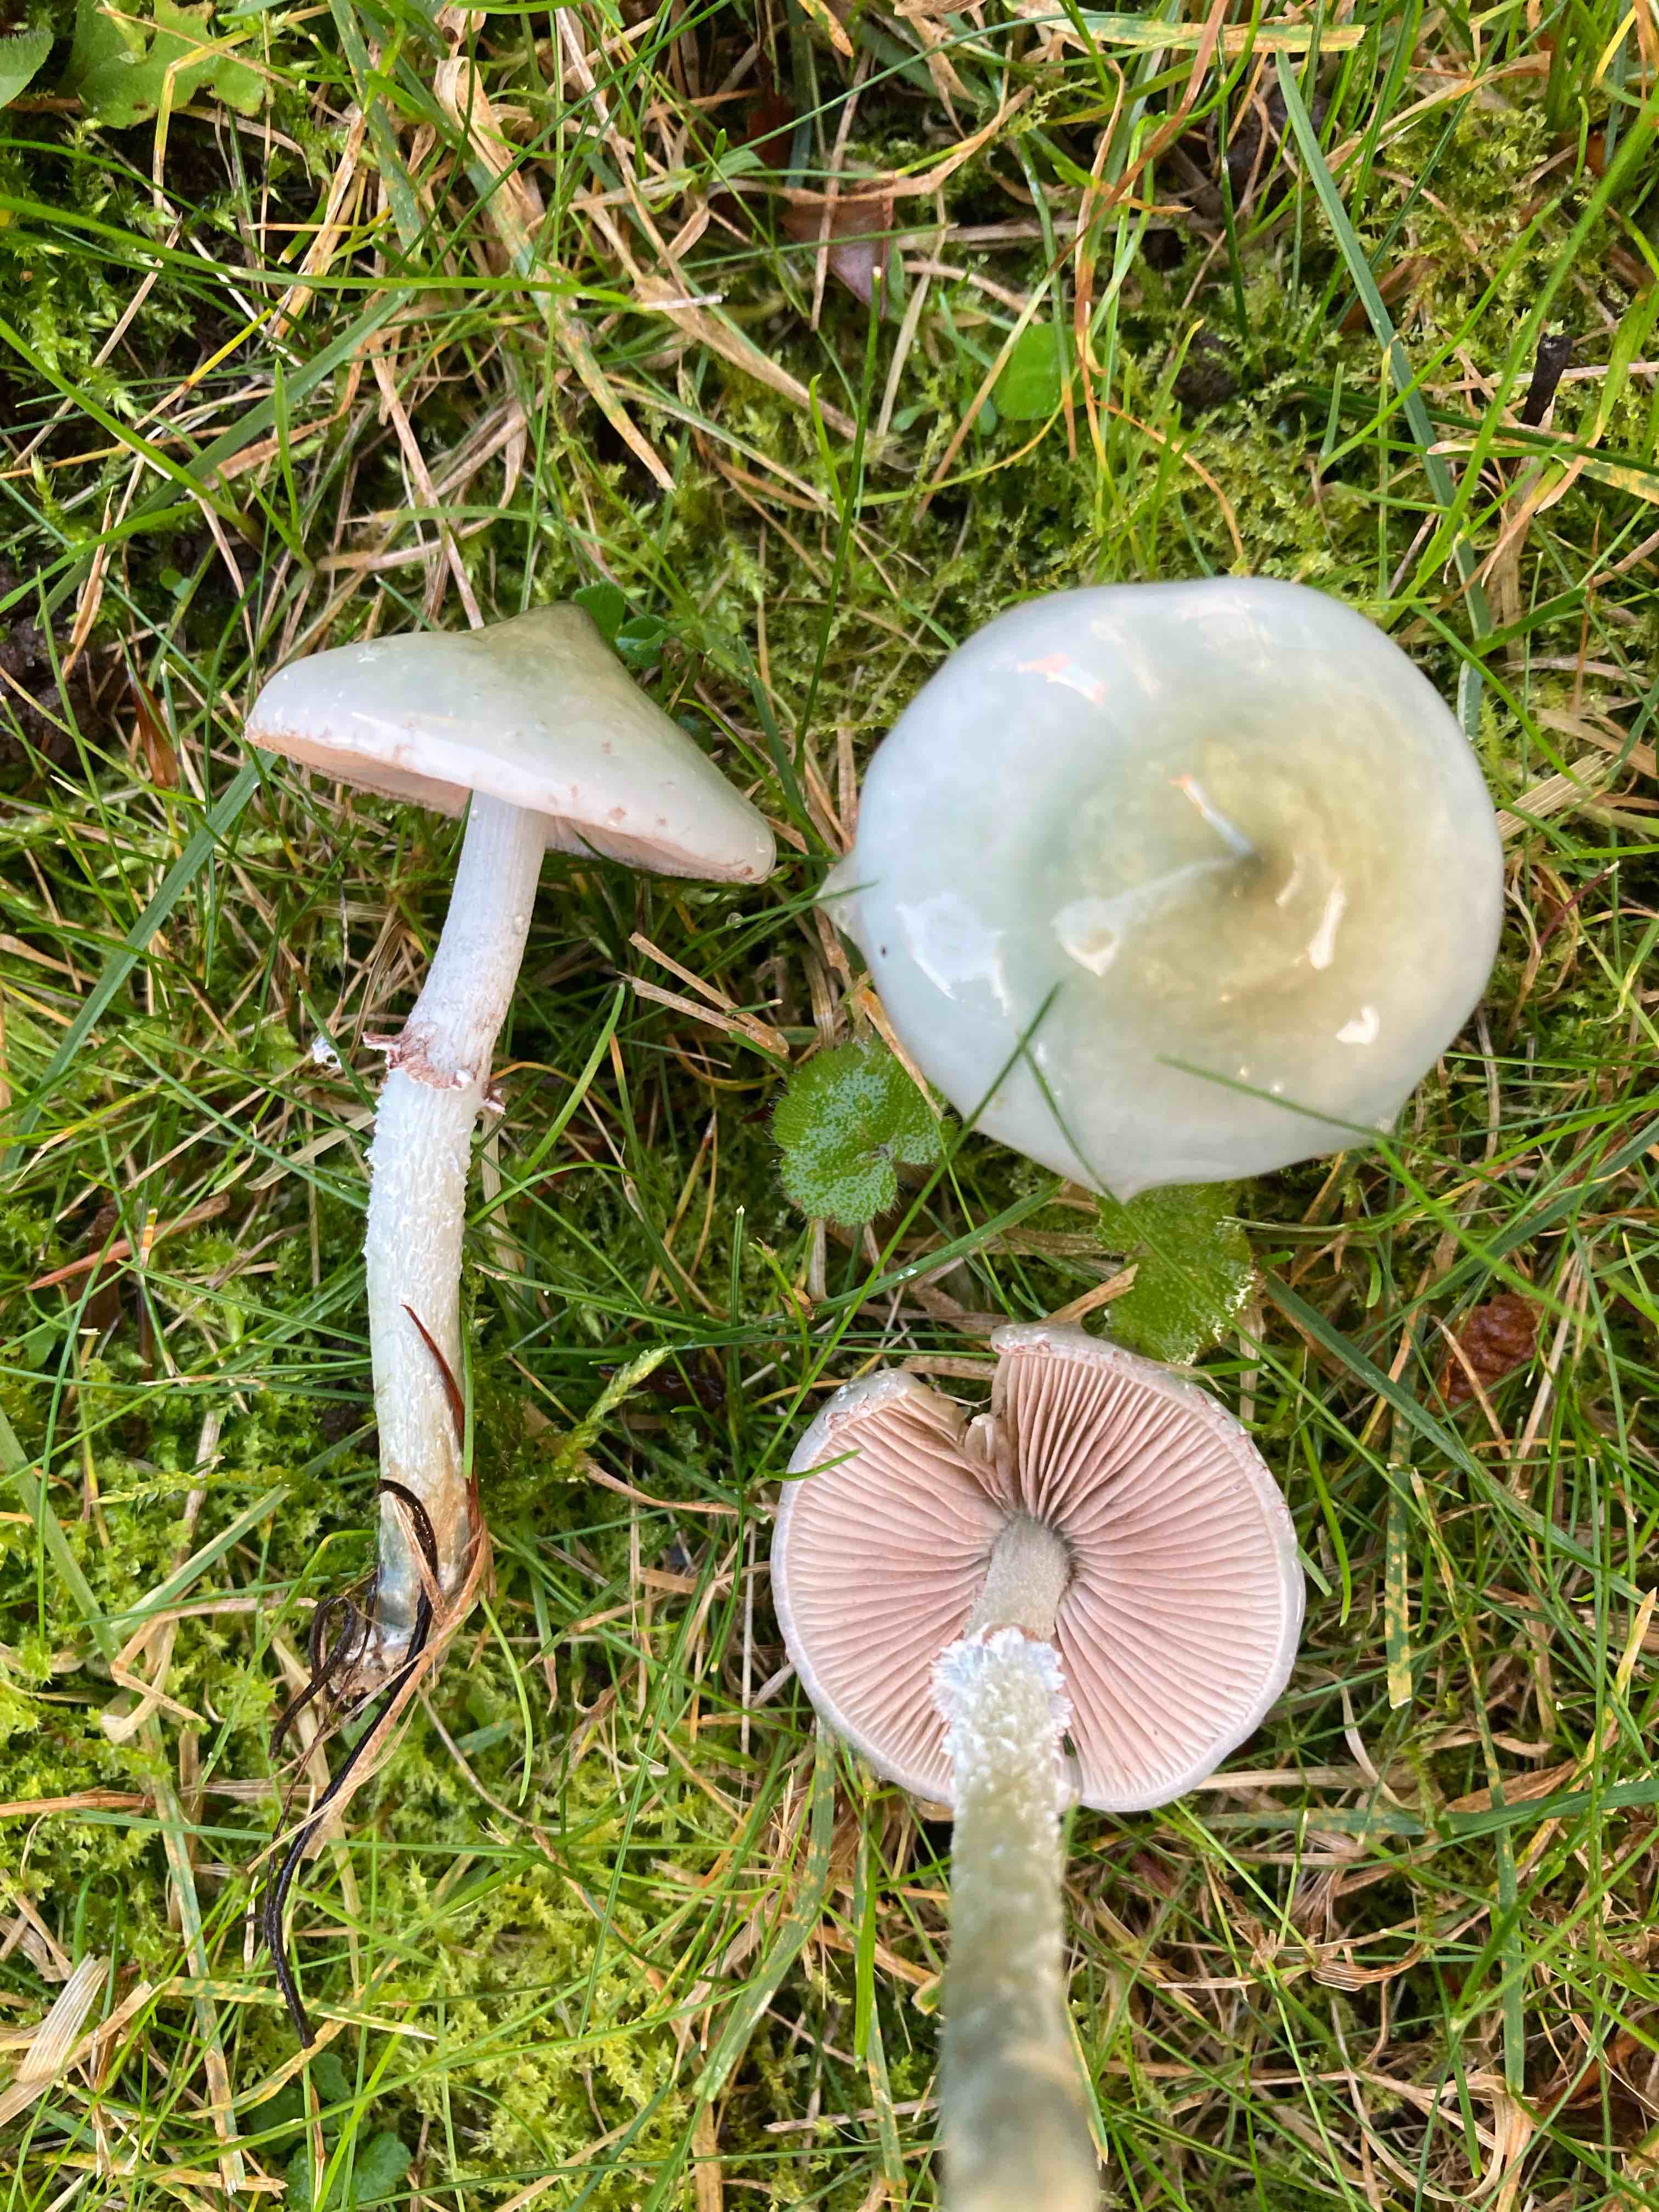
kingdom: Fungi
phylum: Basidiomycota
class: Agaricomycetes
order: Agaricales
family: Strophariaceae
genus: Stropharia
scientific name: Stropharia cyanea
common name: blågrøn bredblad
